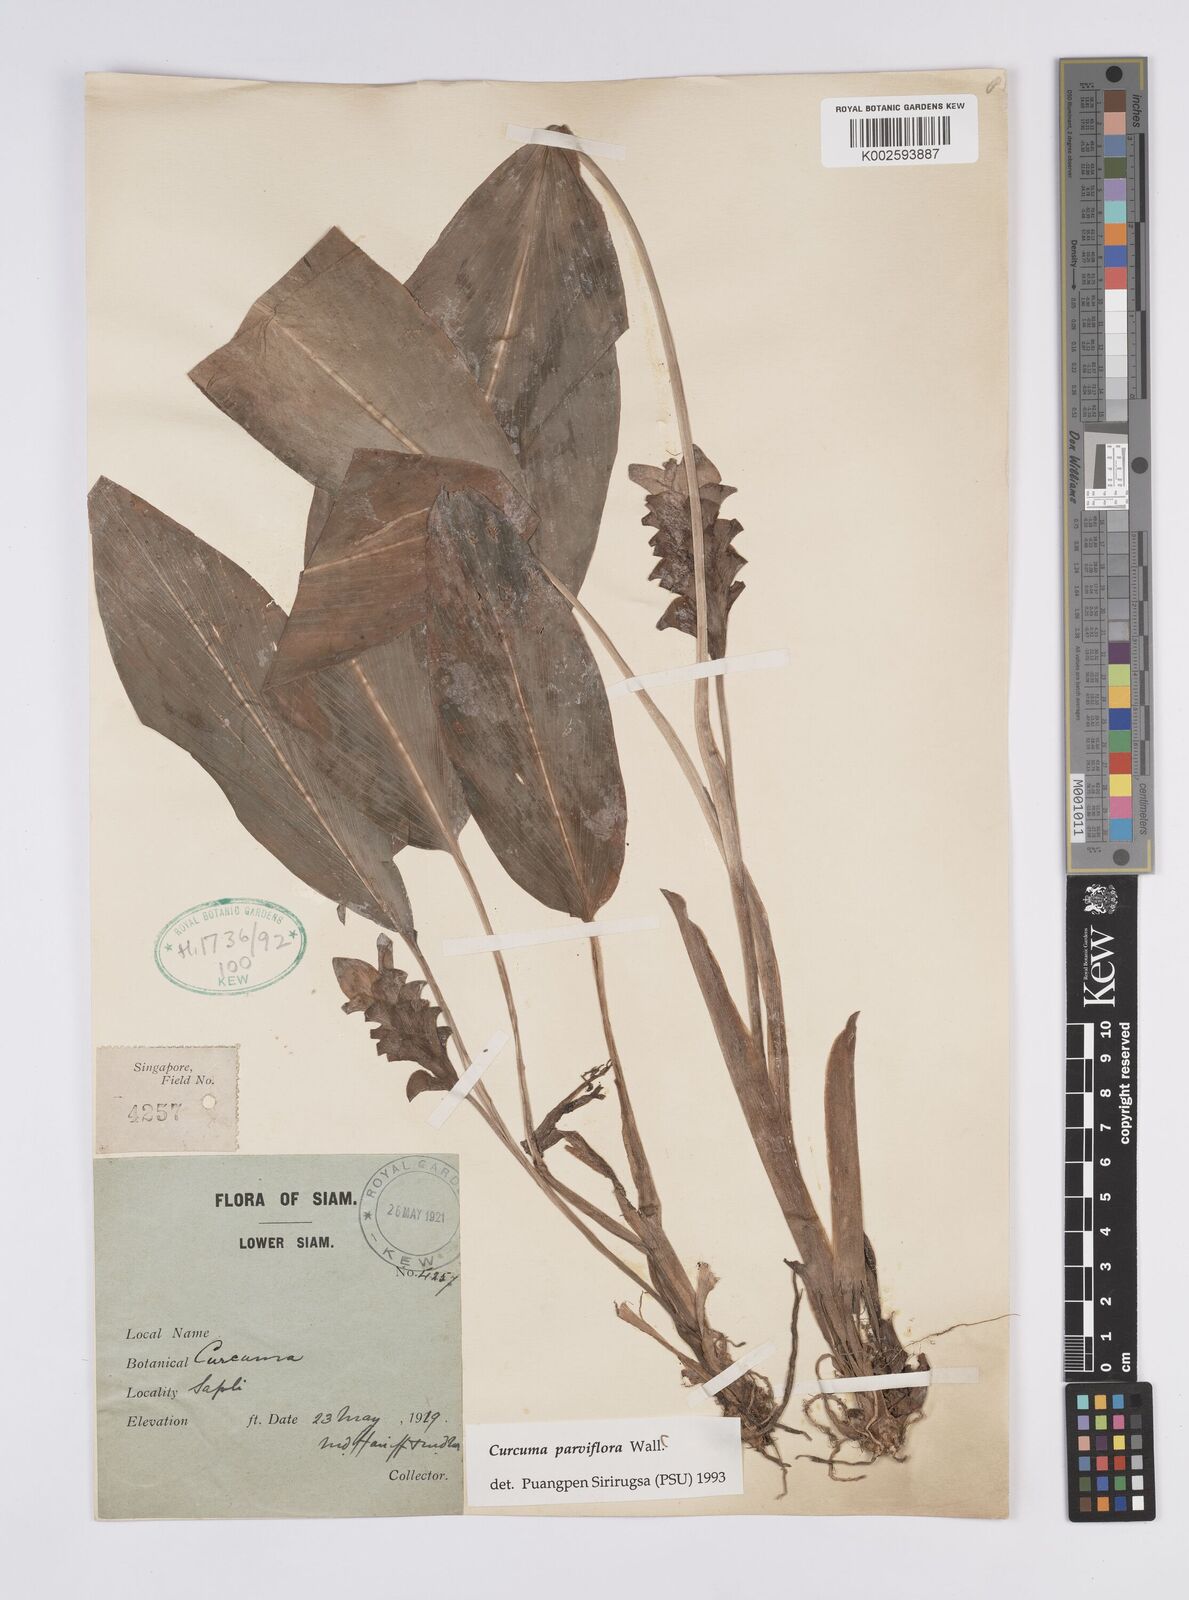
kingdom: Plantae
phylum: Tracheophyta
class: Liliopsida
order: Zingiberales
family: Zingiberaceae
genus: Curcuma
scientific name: Curcuma parviflora
